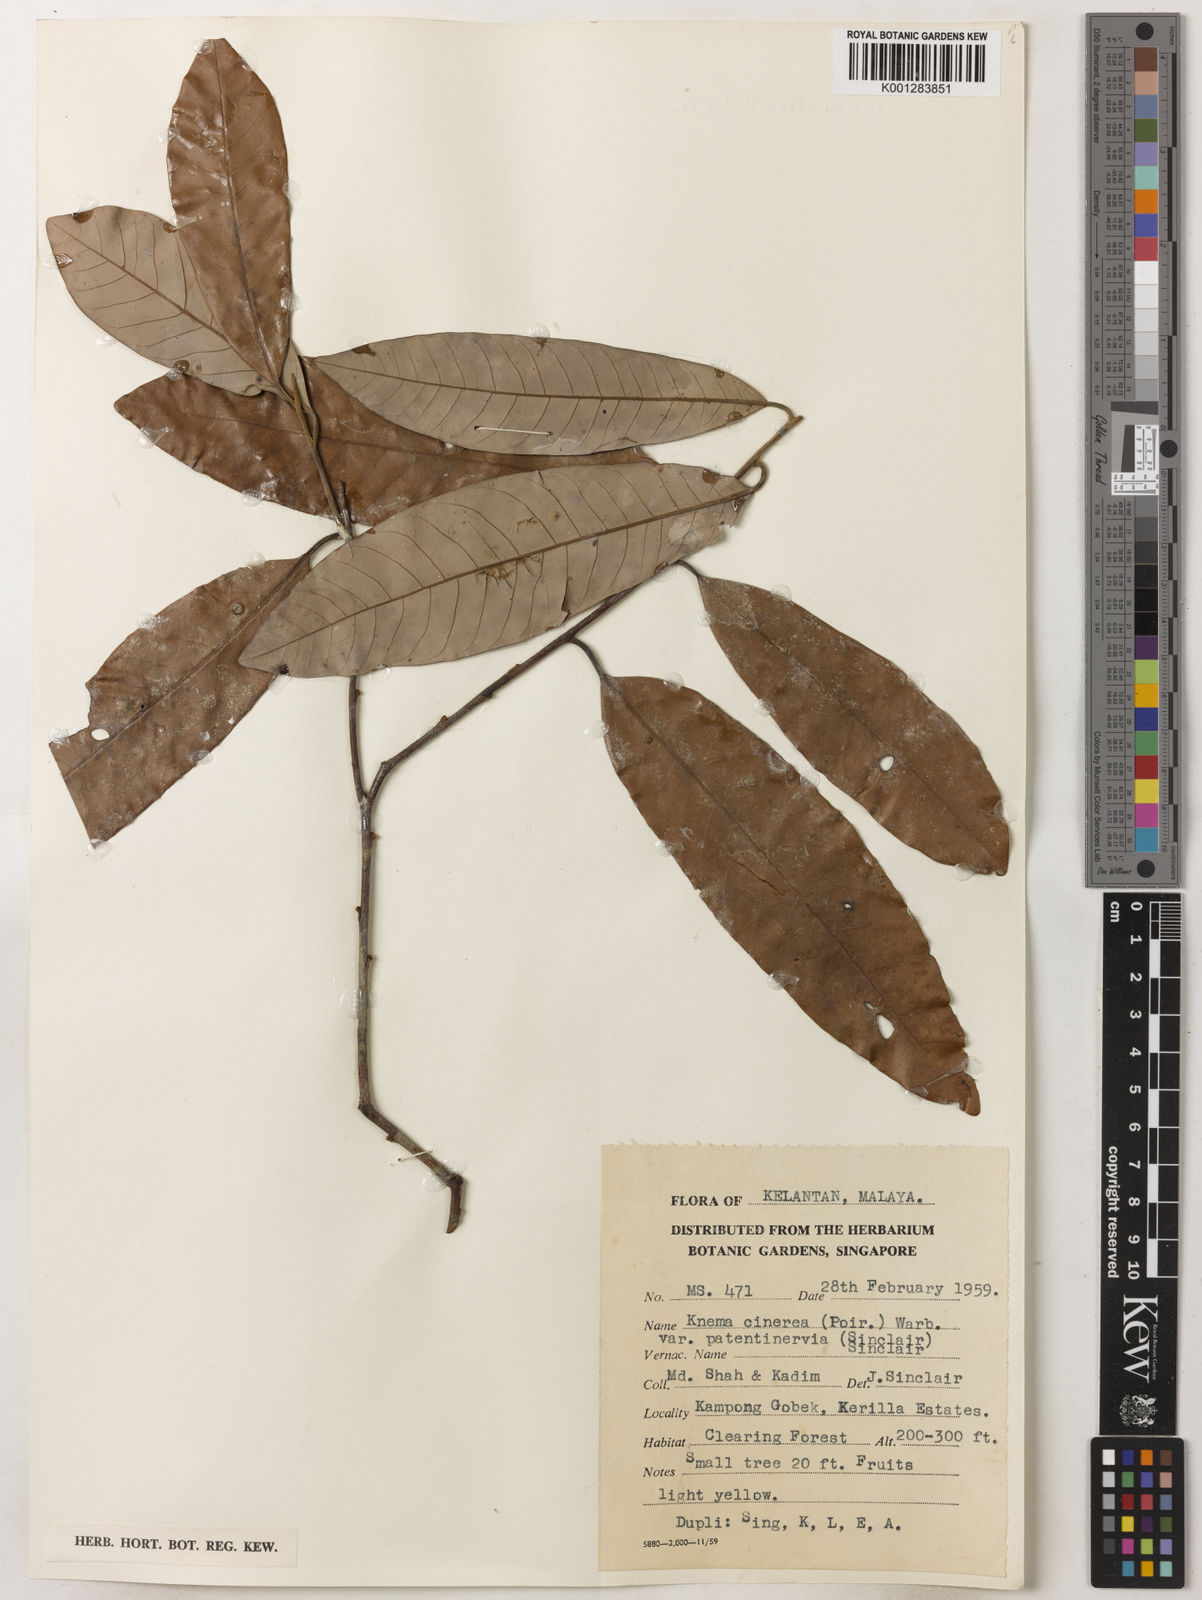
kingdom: Plantae
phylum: Tracheophyta
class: Magnoliopsida
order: Magnoliales
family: Myristicaceae
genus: Knema
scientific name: Knema
